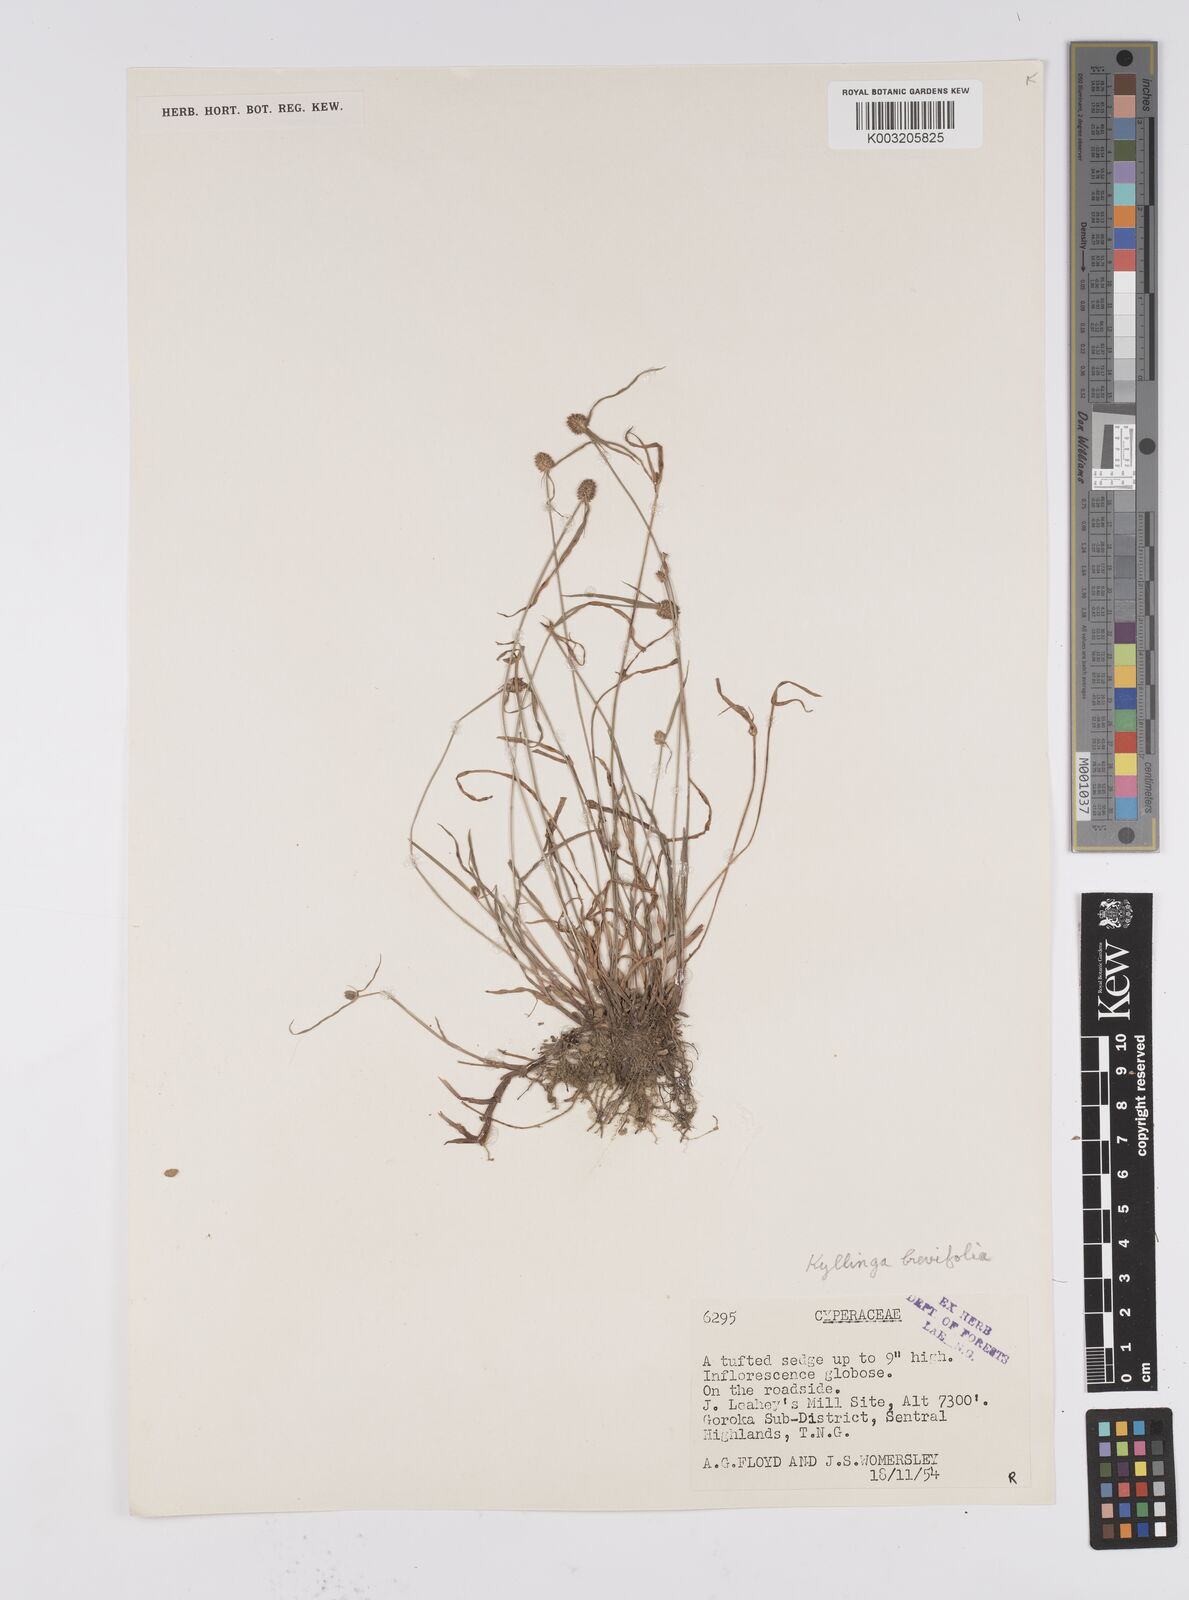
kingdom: Plantae
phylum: Tracheophyta
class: Liliopsida
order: Poales
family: Cyperaceae
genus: Cyperus
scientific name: Cyperus brevifolius
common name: Globe kyllinga
